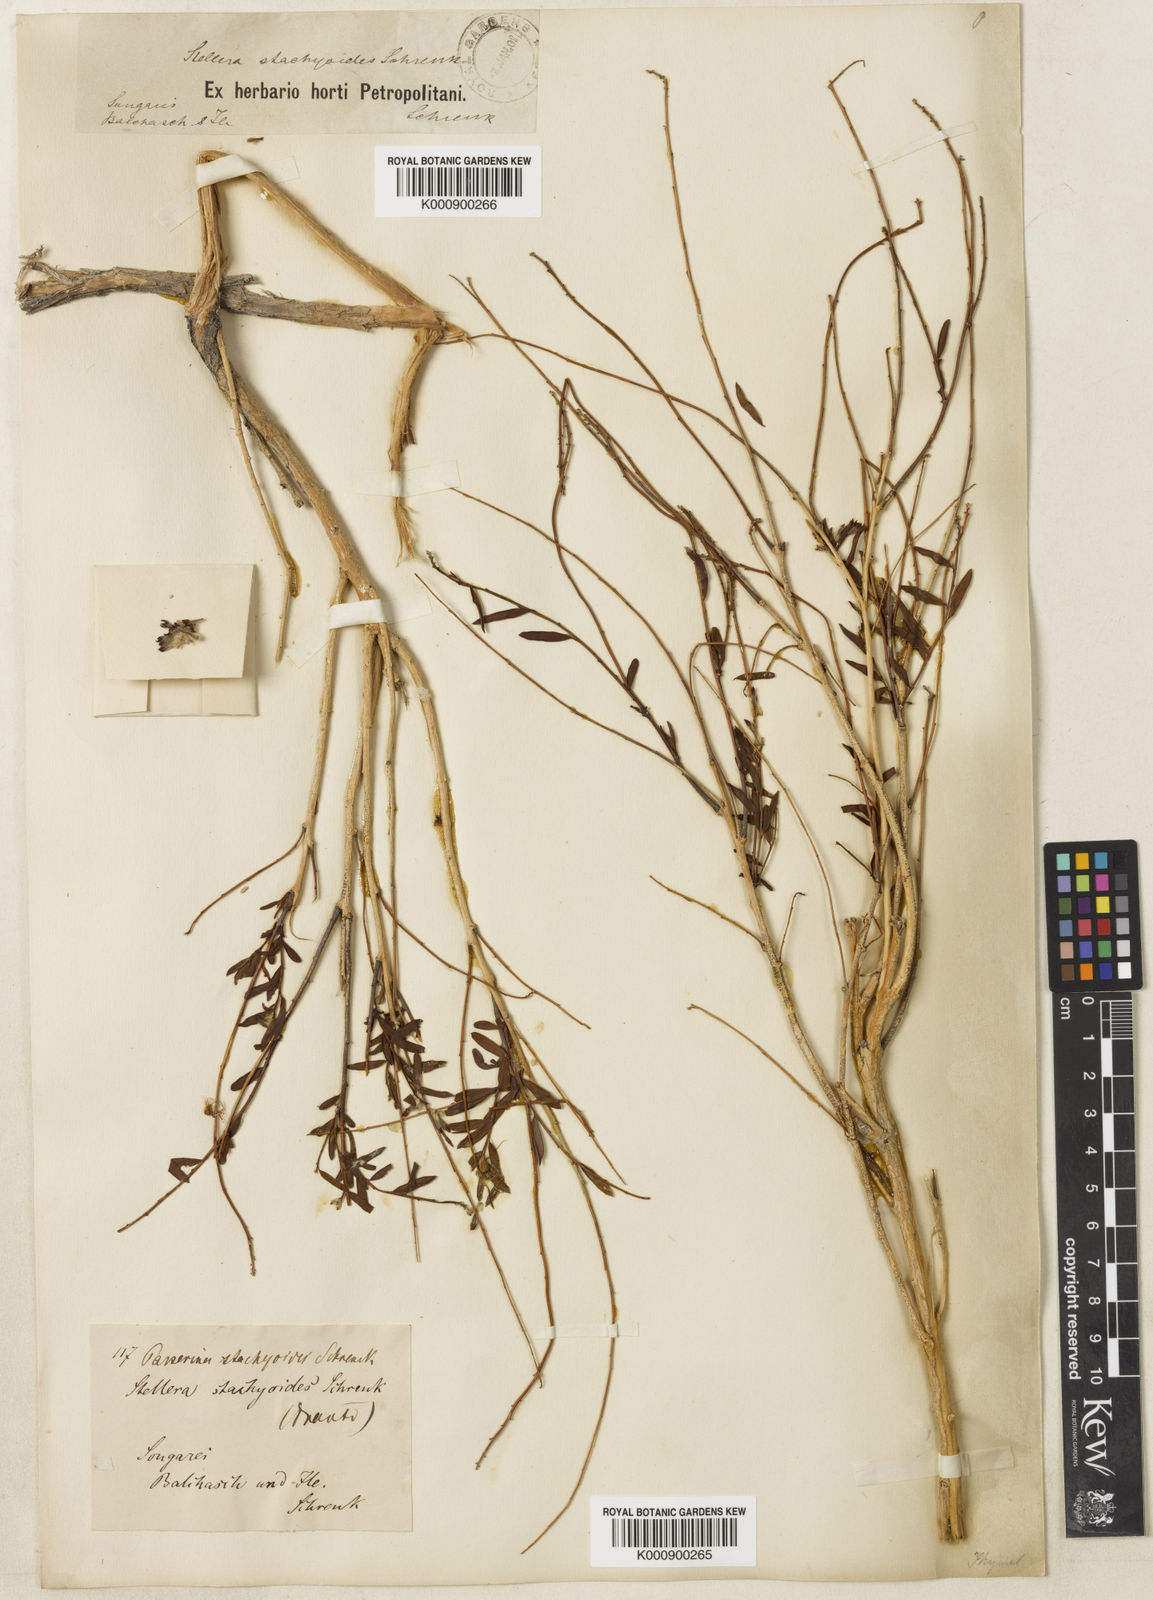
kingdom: Plantae
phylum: Tracheophyta
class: Magnoliopsida
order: Malvales
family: Thymelaeaceae
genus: Diarthron
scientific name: Diarthron ammodendron
